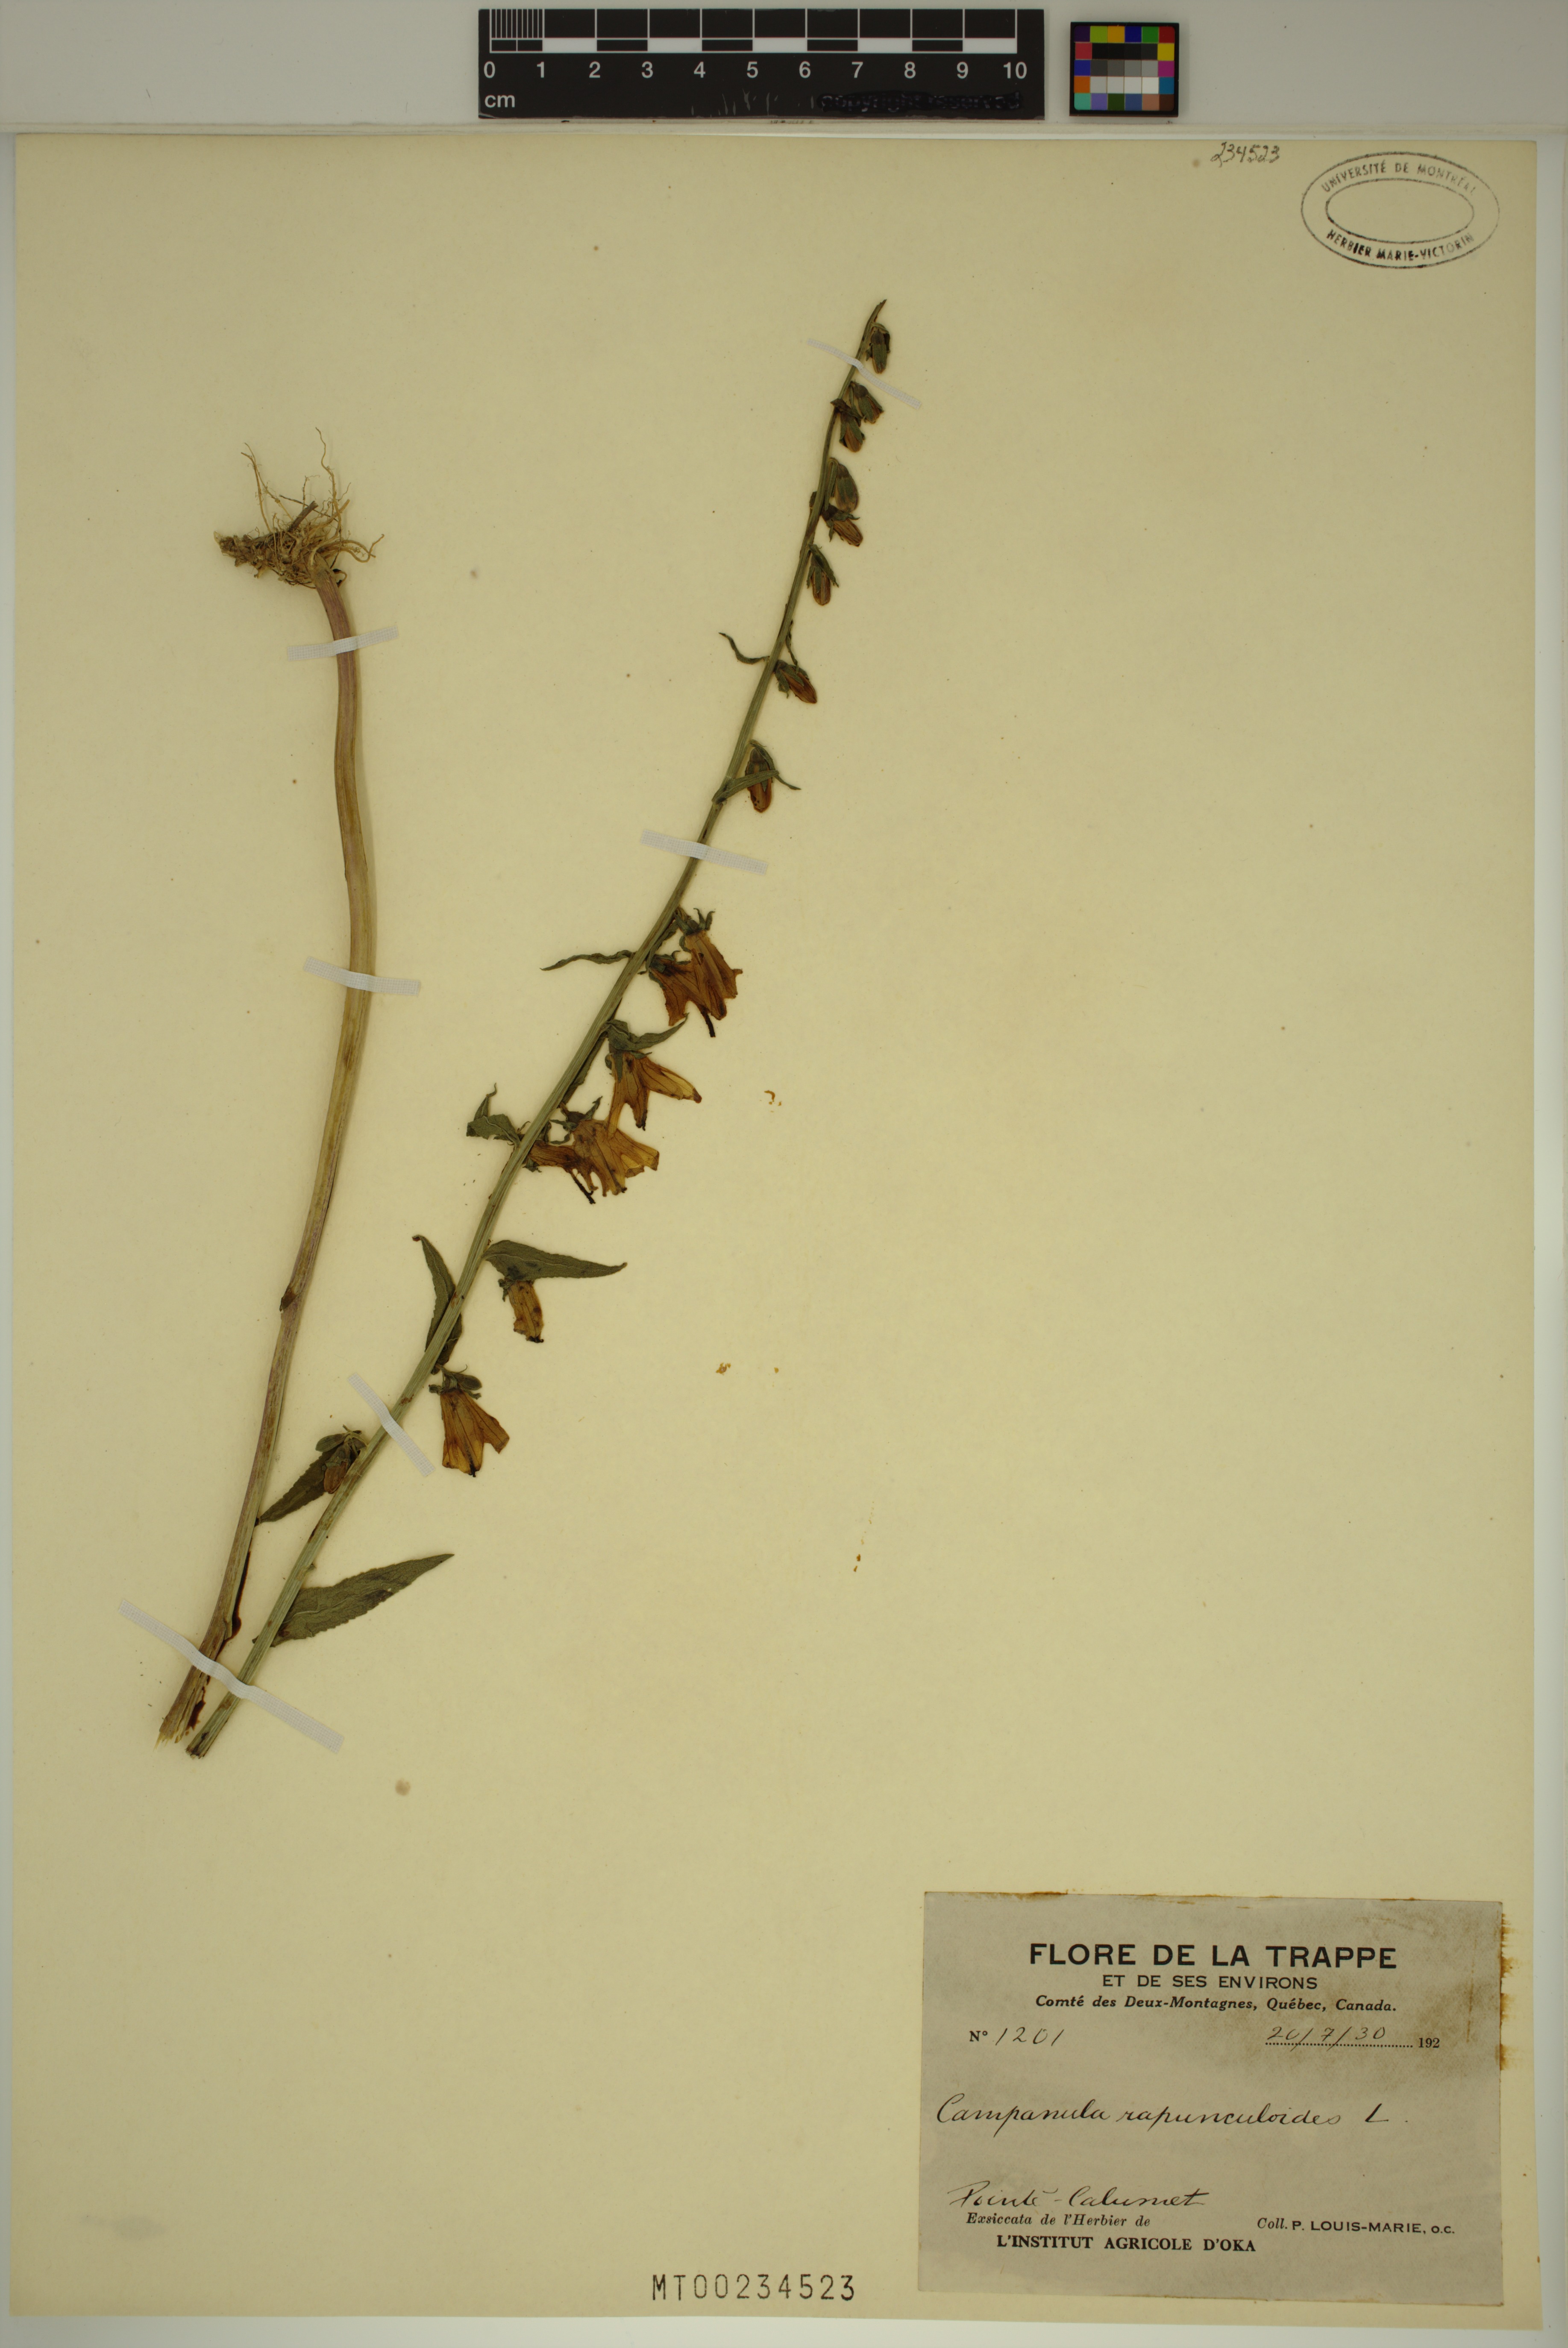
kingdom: Plantae
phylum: Tracheophyta
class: Magnoliopsida
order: Asterales
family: Campanulaceae
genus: Campanula
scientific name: Campanula rapunculoides
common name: Creeping bellflower
